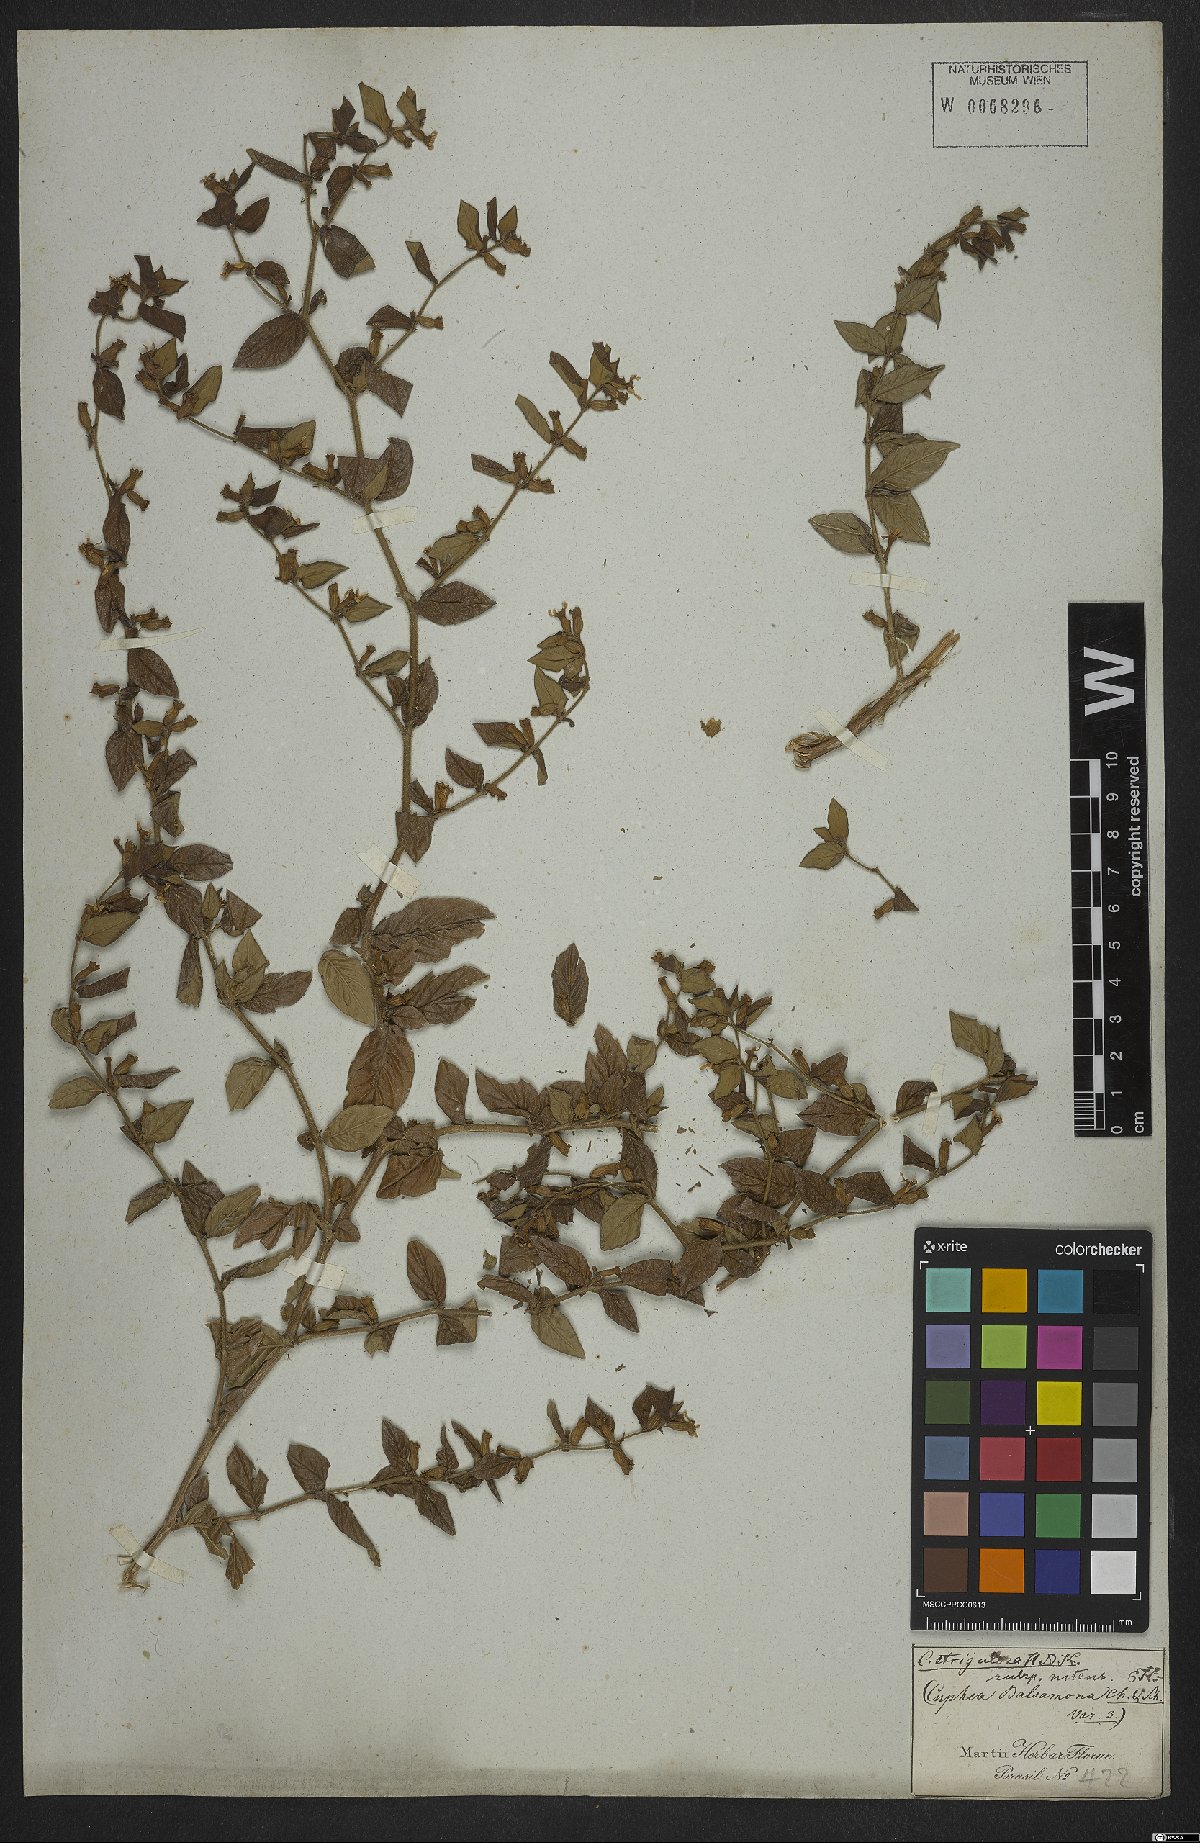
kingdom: Plantae
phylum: Tracheophyta
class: Magnoliopsida
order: Myrtales
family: Lythraceae
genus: Cuphea
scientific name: Cuphea strigulosa
